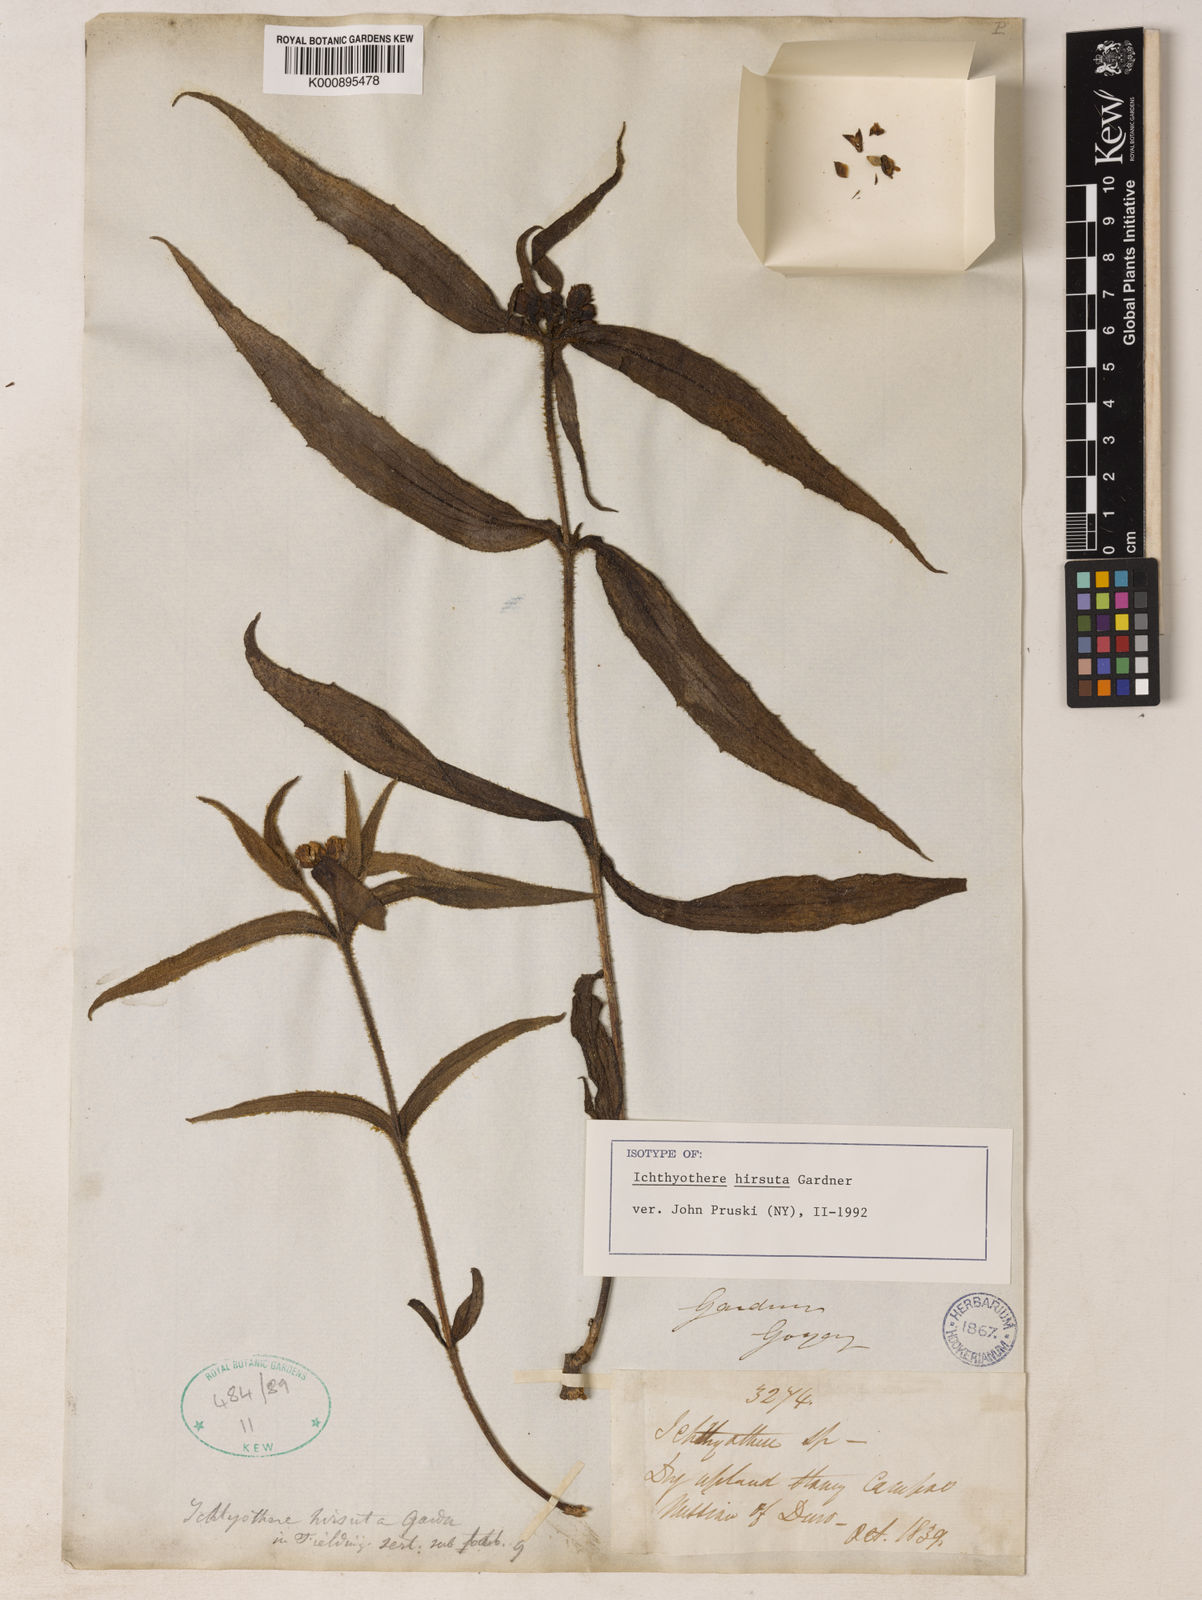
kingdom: Plantae
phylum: Tracheophyta
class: Magnoliopsida
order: Asterales
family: Asteraceae
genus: Ichthyothere
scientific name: Ichthyothere hirsuta
